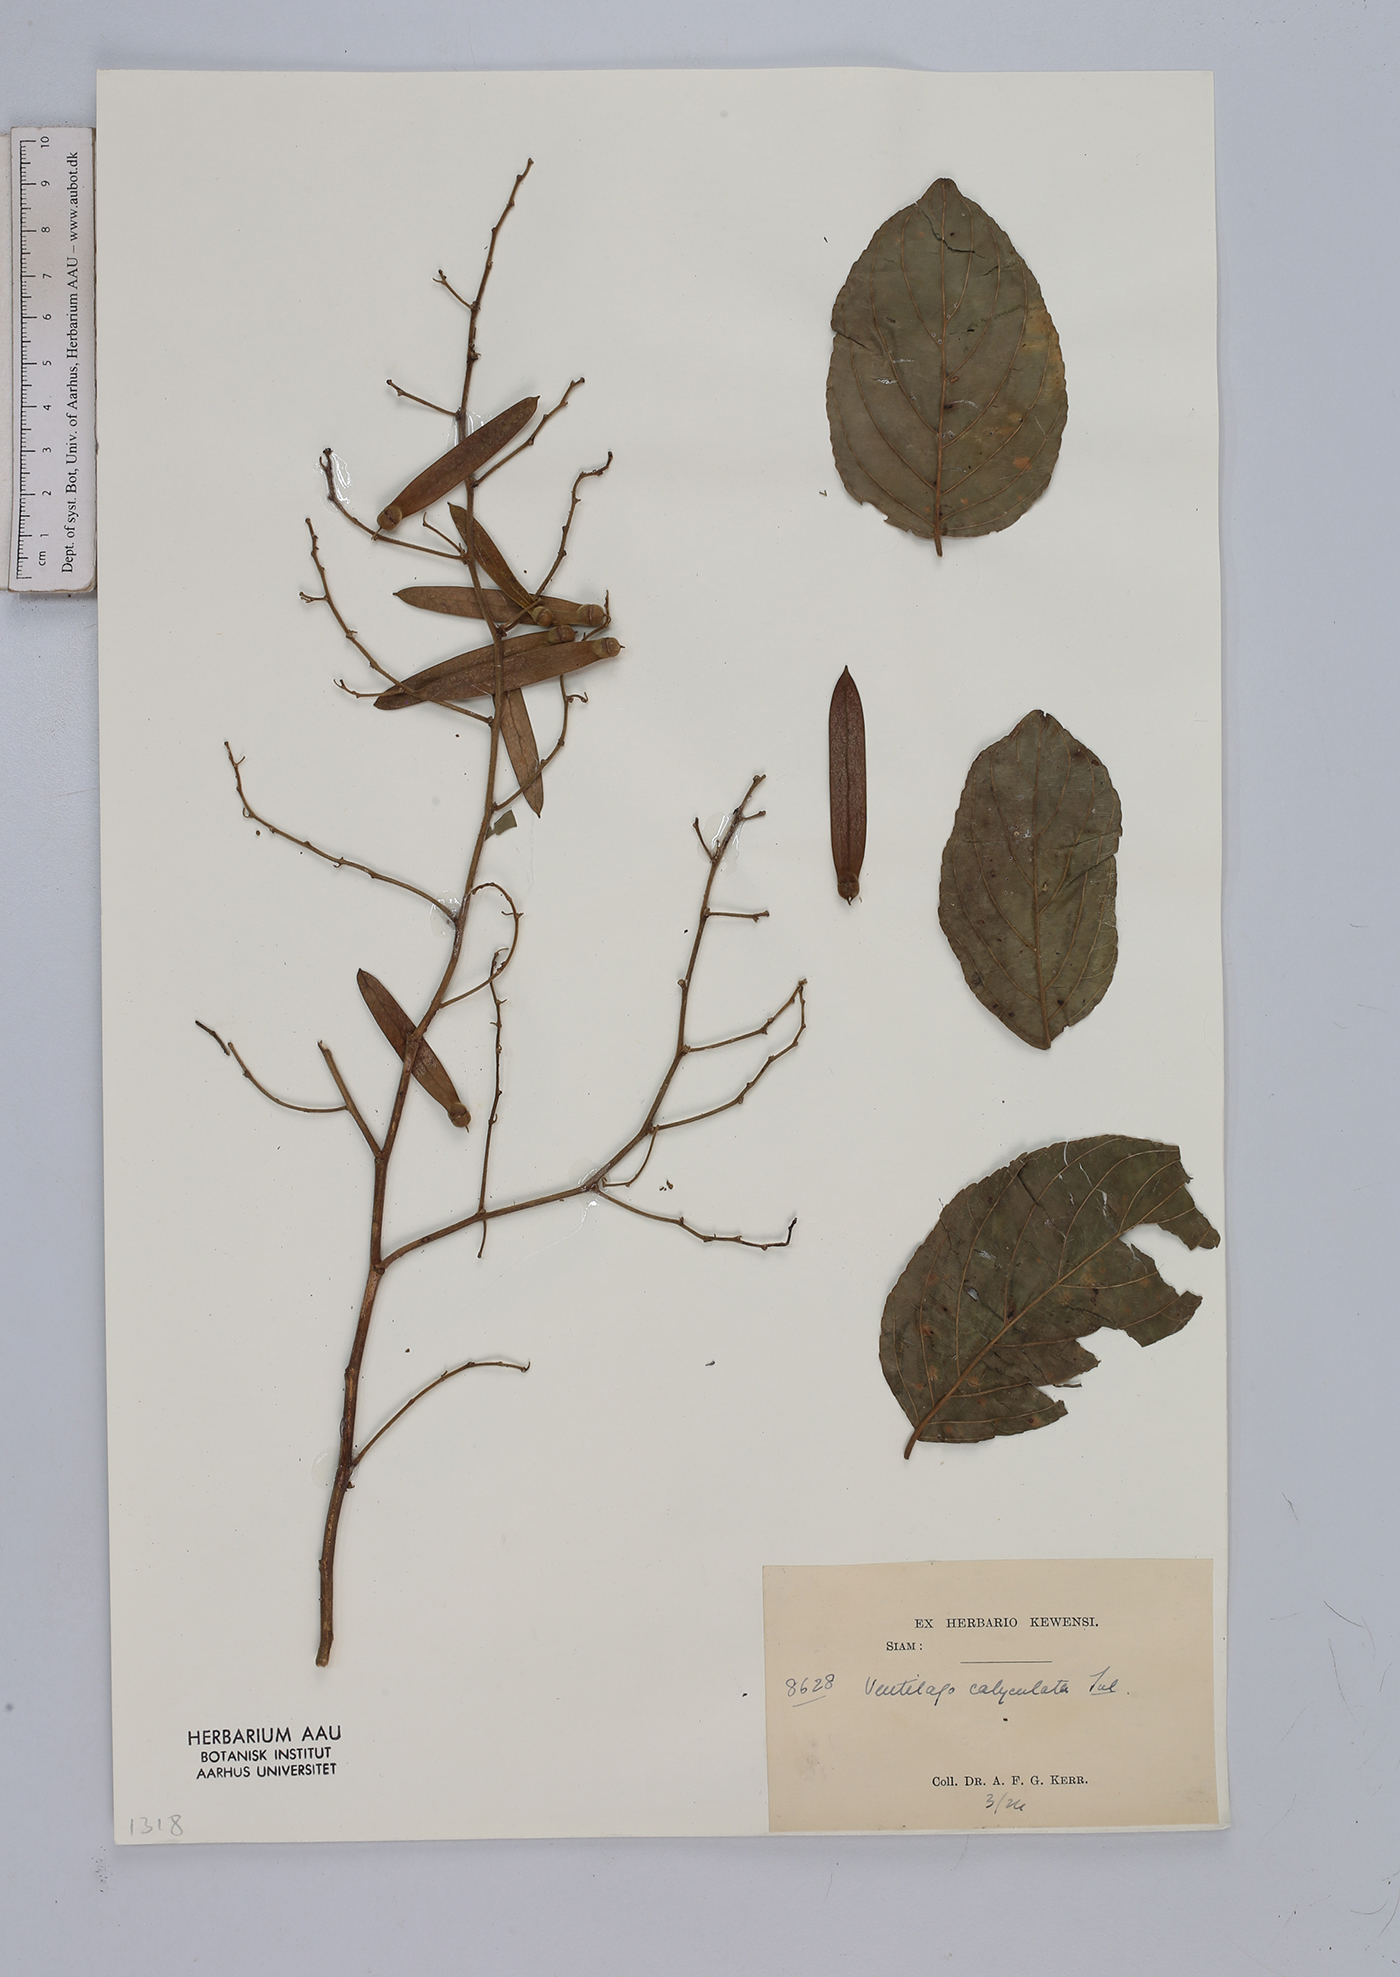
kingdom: Plantae
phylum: Tracheophyta
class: Magnoliopsida
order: Rosales
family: Rhamnaceae
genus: Ventilago
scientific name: Ventilago denticulata
